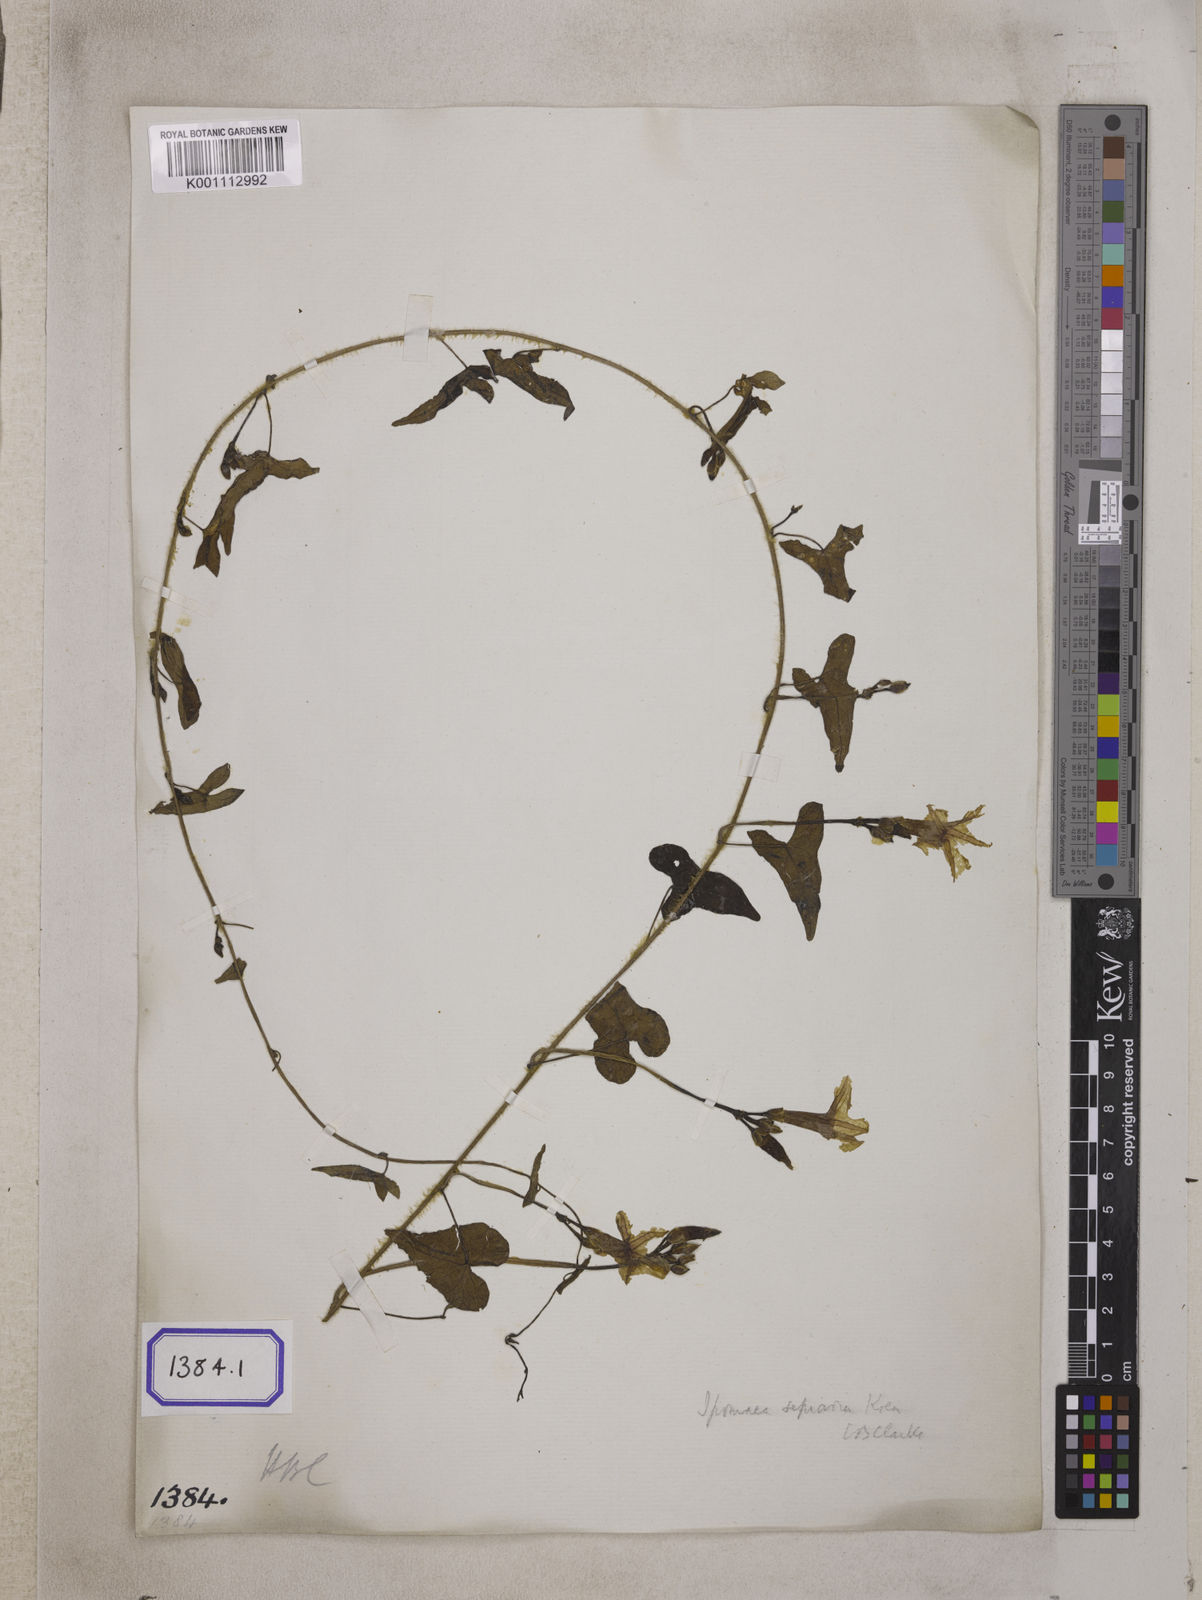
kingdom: Plantae
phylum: Tracheophyta
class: Magnoliopsida
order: Solanales
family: Convolvulaceae
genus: Ipomoea
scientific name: Ipomoea sagittifolia
